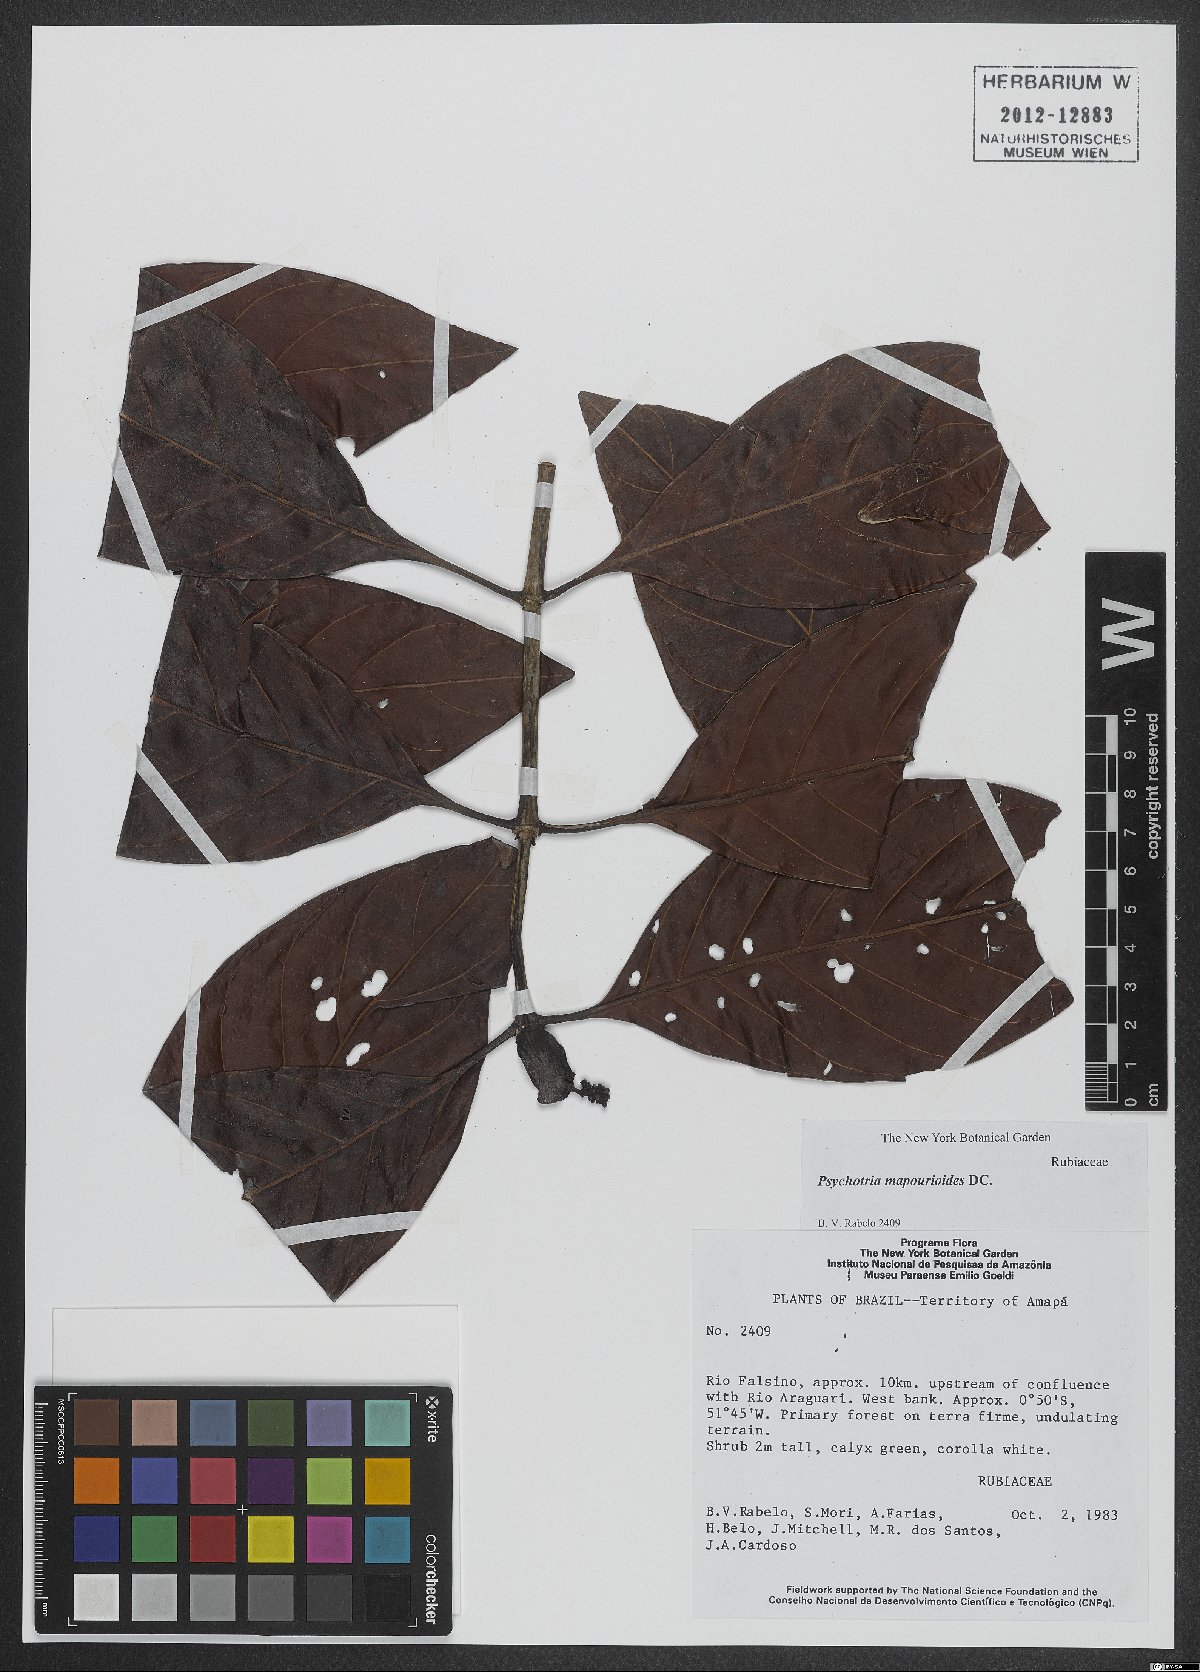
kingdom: Plantae
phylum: Tracheophyta
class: Magnoliopsida
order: Gentianales
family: Rubiaceae
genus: Psychotria
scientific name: Psychotria pedunculosa
